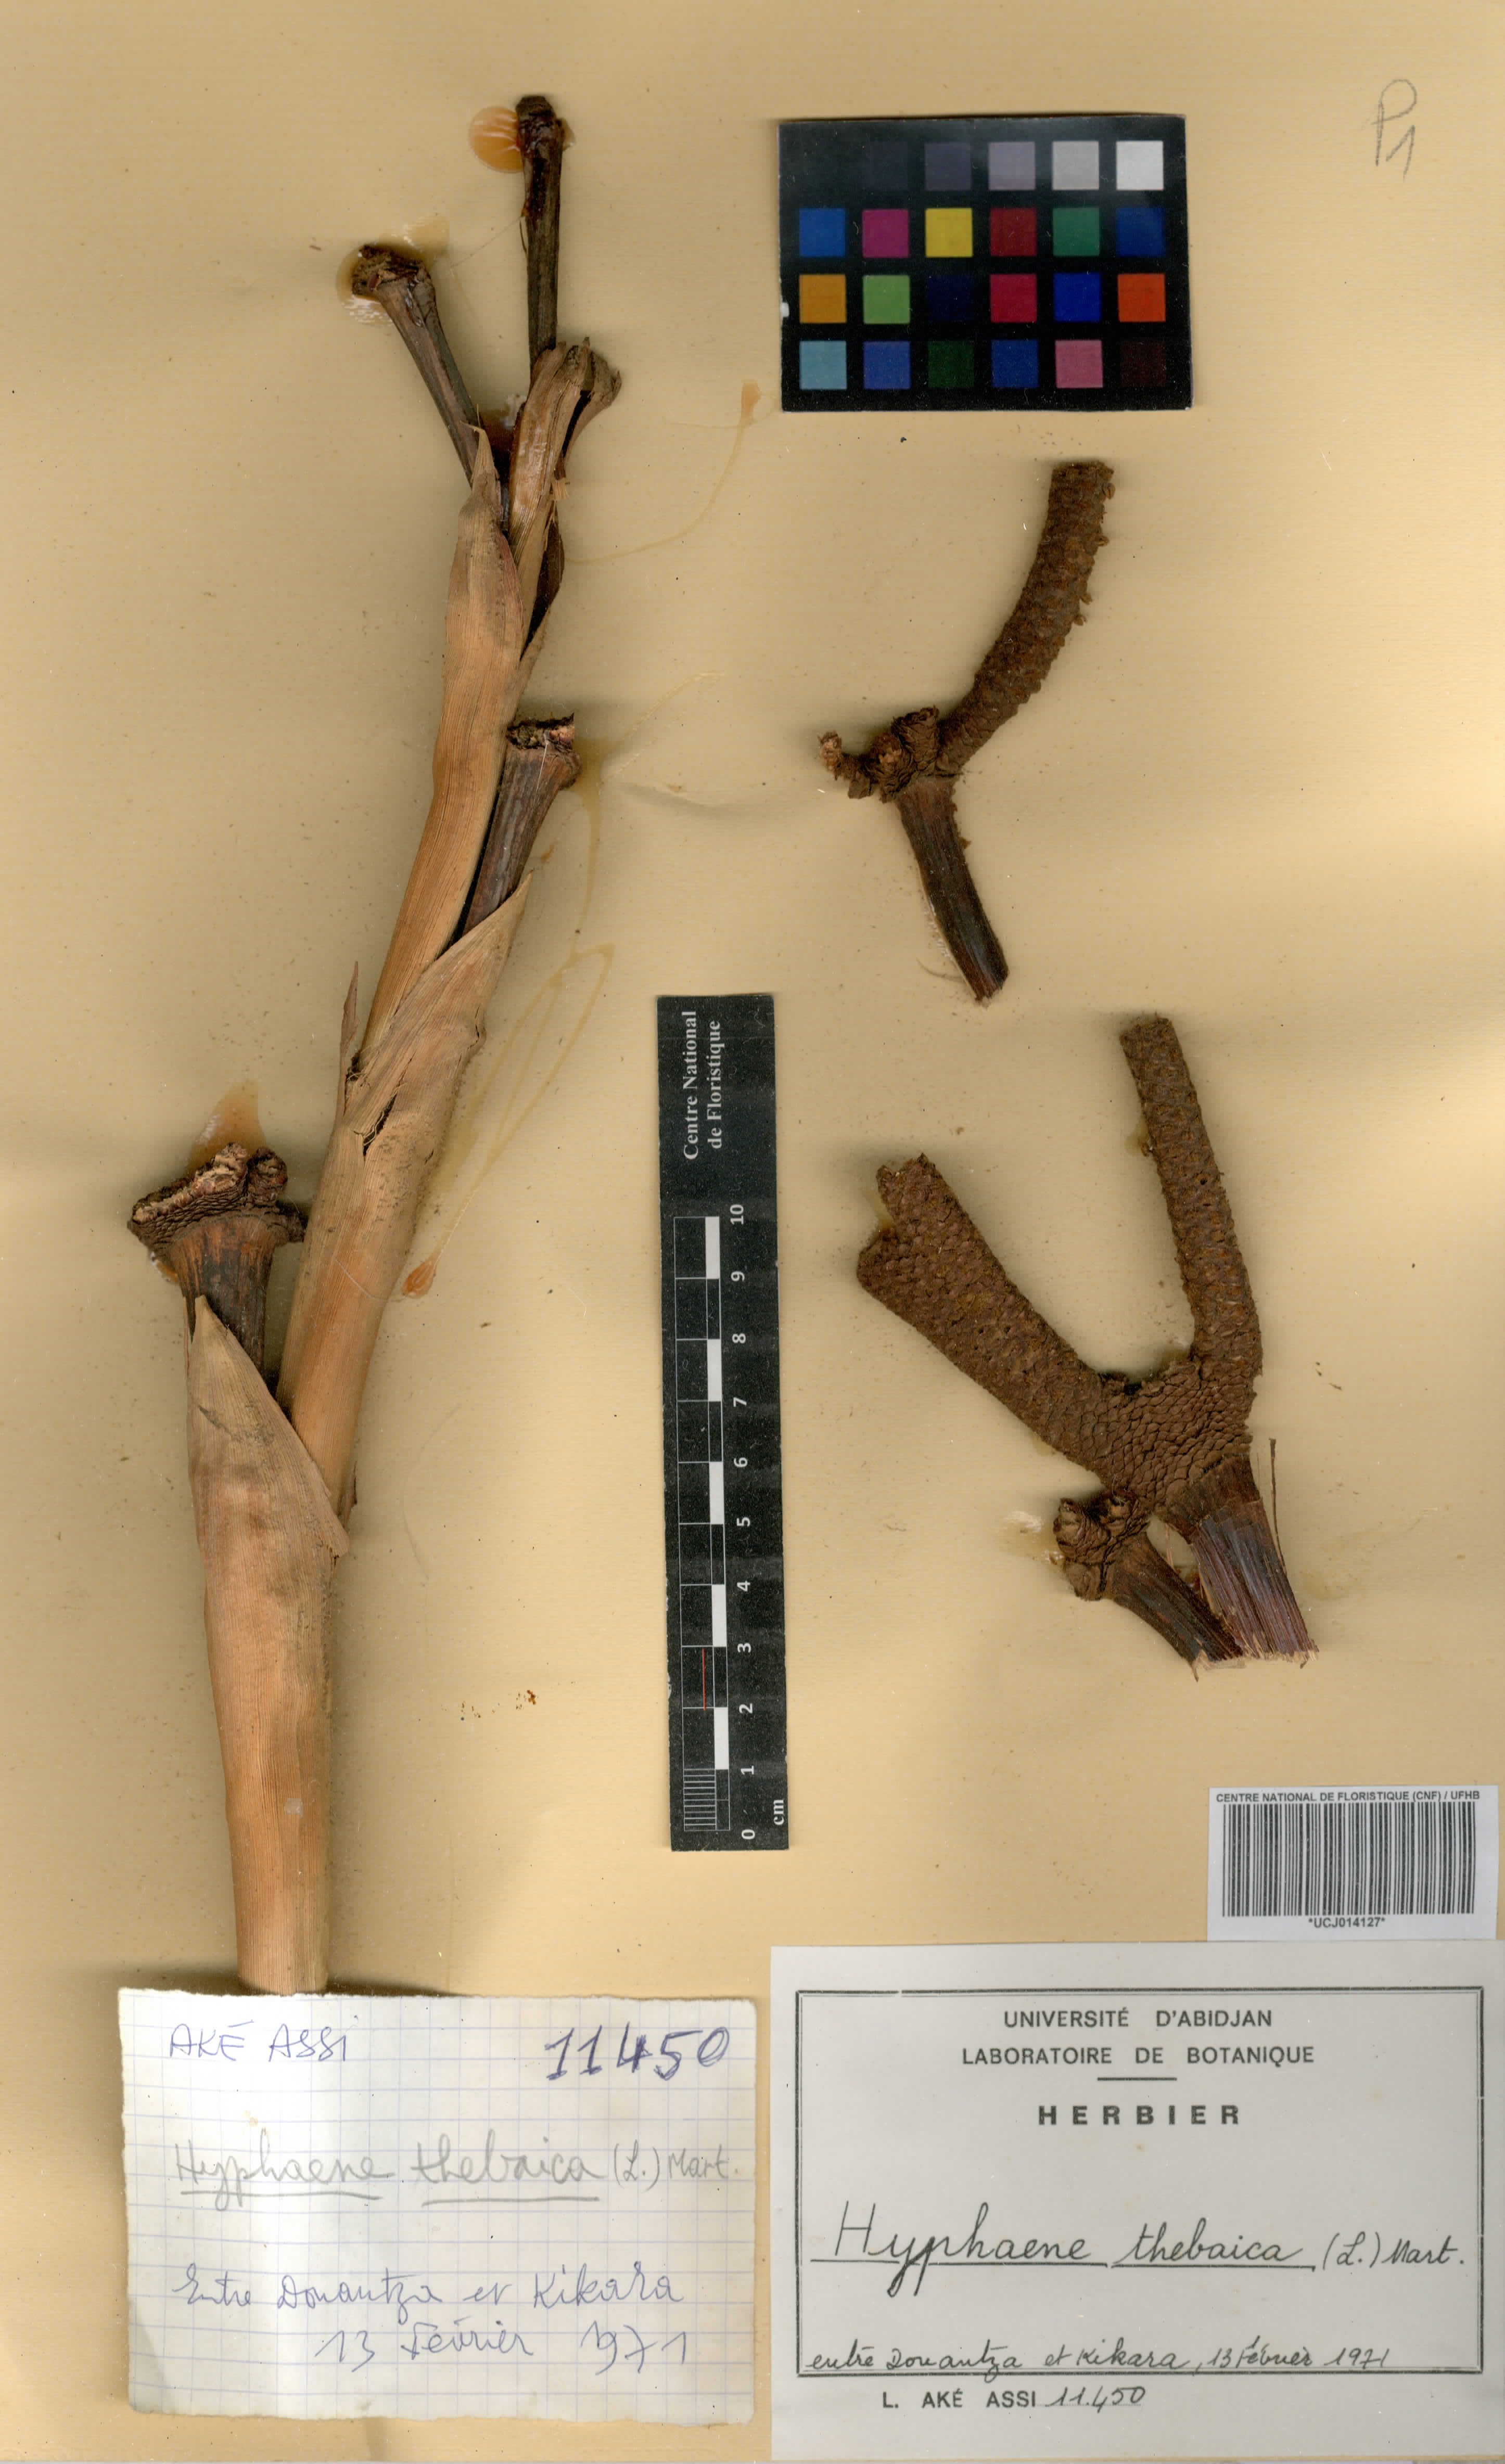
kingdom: Plantae
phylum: Tracheophyta
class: Liliopsida
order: Arecales
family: Arecaceae
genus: Hyphaene
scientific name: Hyphaene thebaica
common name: Doum palm
